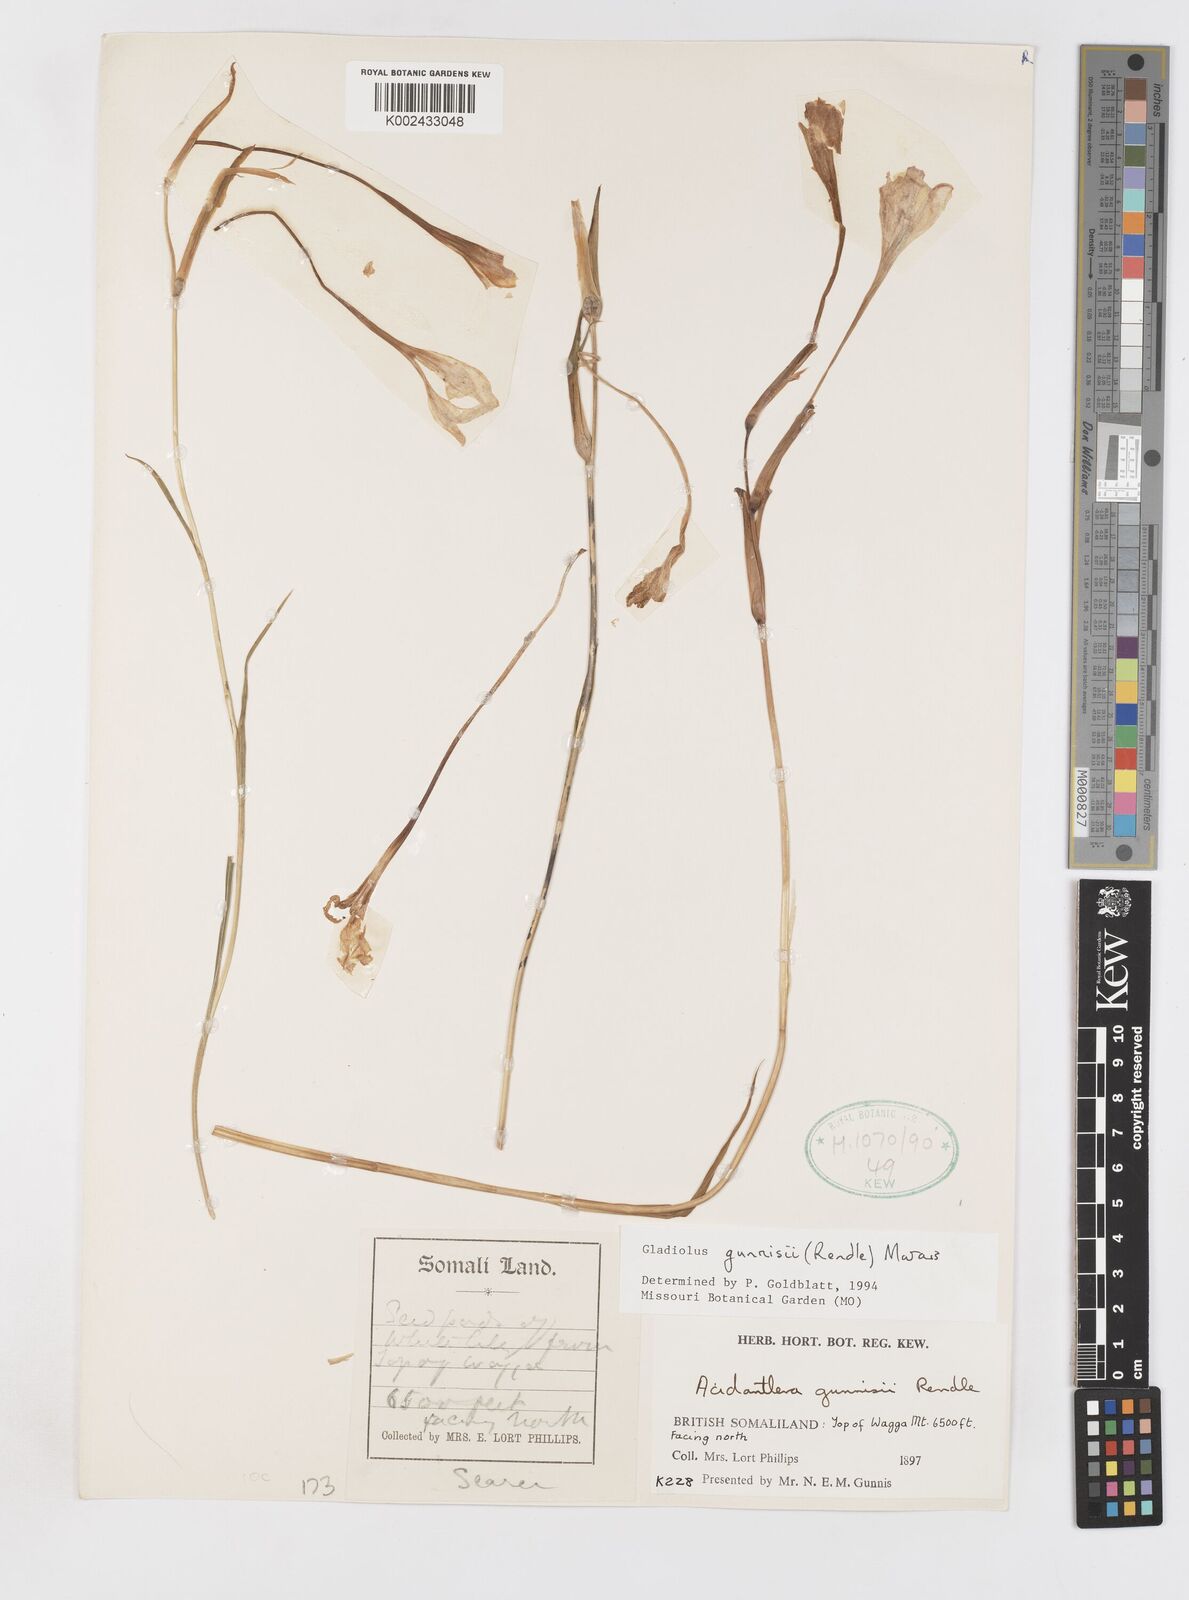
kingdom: Plantae
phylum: Tracheophyta
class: Liliopsida
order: Asparagales
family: Iridaceae
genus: Gladiolus
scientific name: Gladiolus gunnisii
